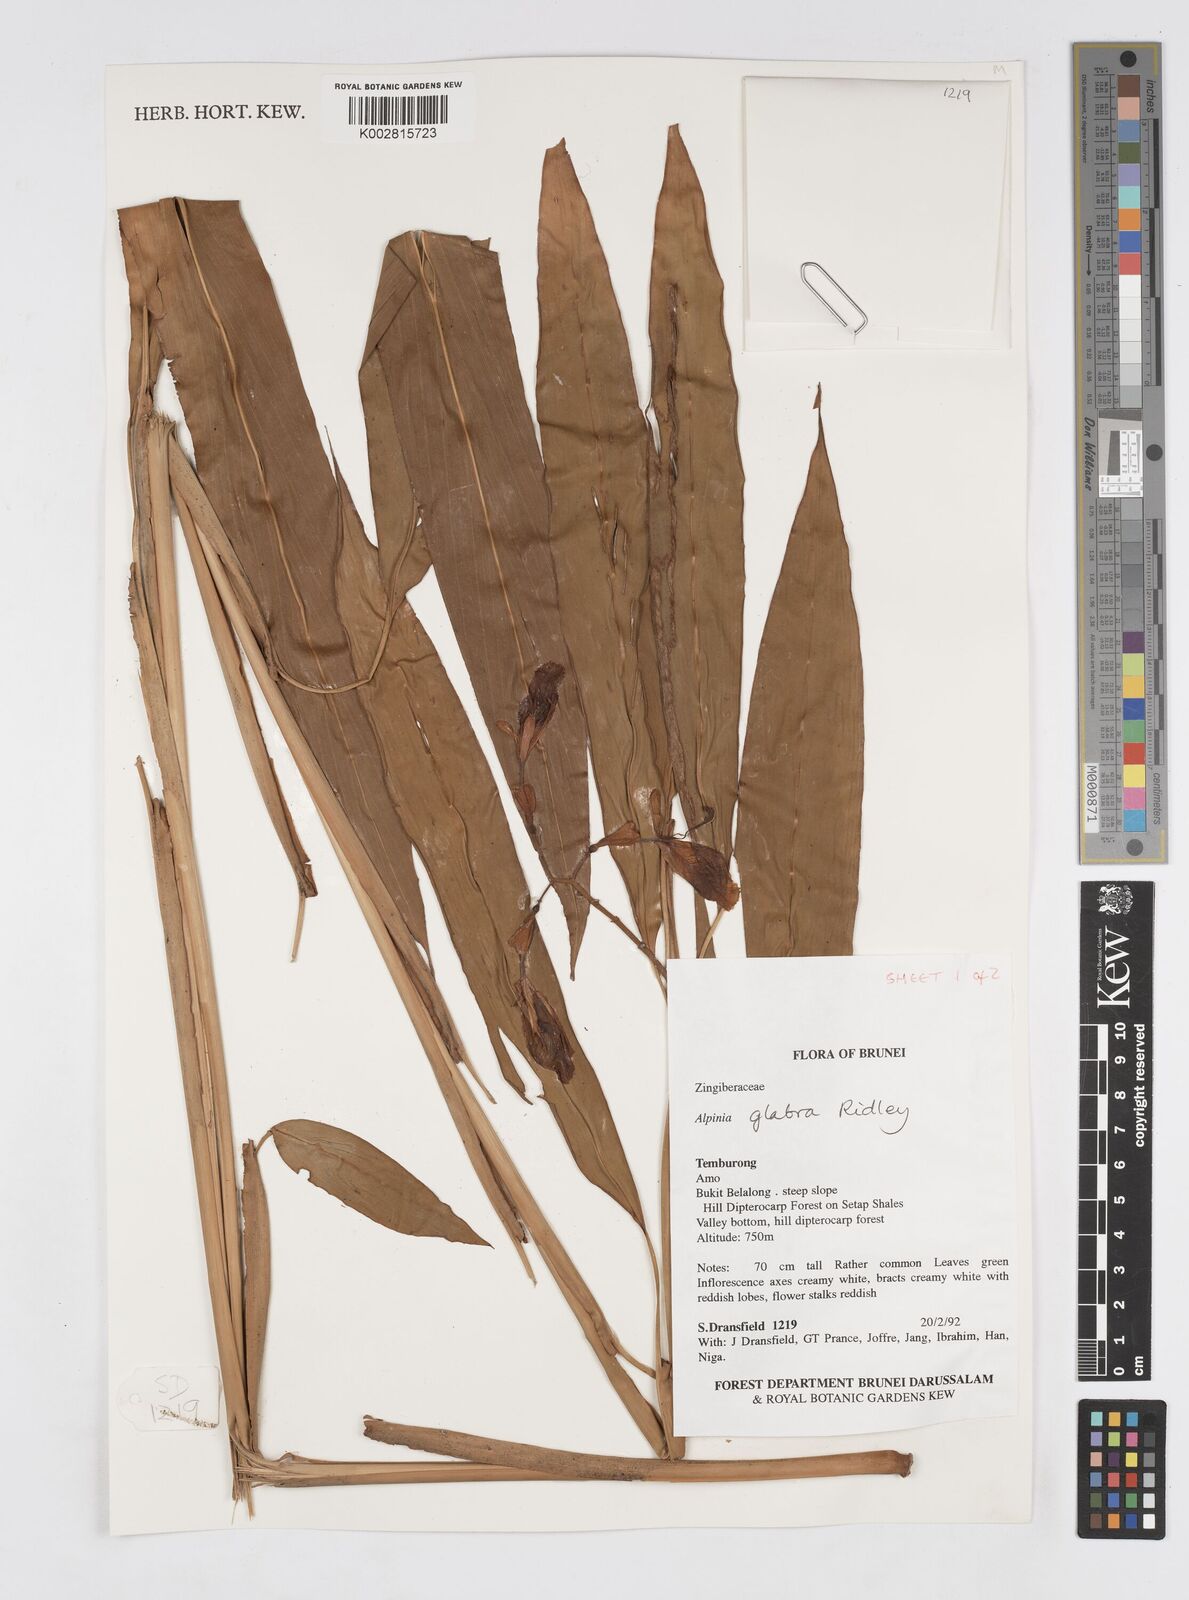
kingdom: Plantae
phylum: Tracheophyta
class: Liliopsida
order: Zingiberales
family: Zingiberaceae
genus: Alpinia
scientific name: Alpinia glabra
